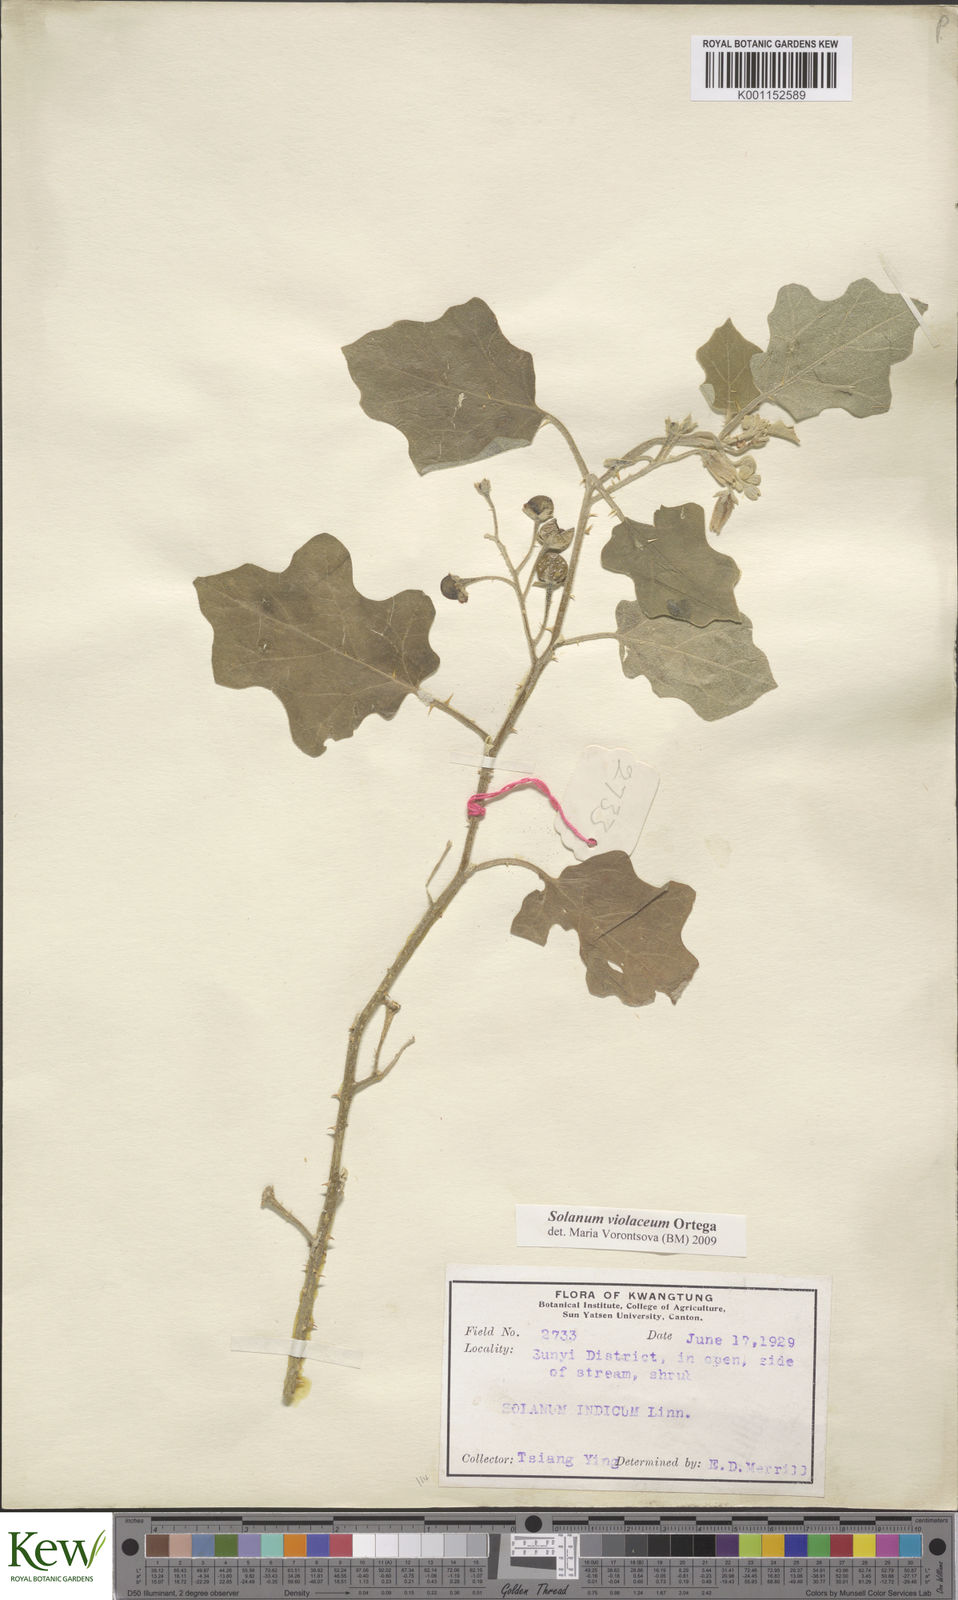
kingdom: Plantae
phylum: Tracheophyta
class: Magnoliopsida
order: Solanales
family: Solanaceae
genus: Solanum
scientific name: Solanum violaceum
